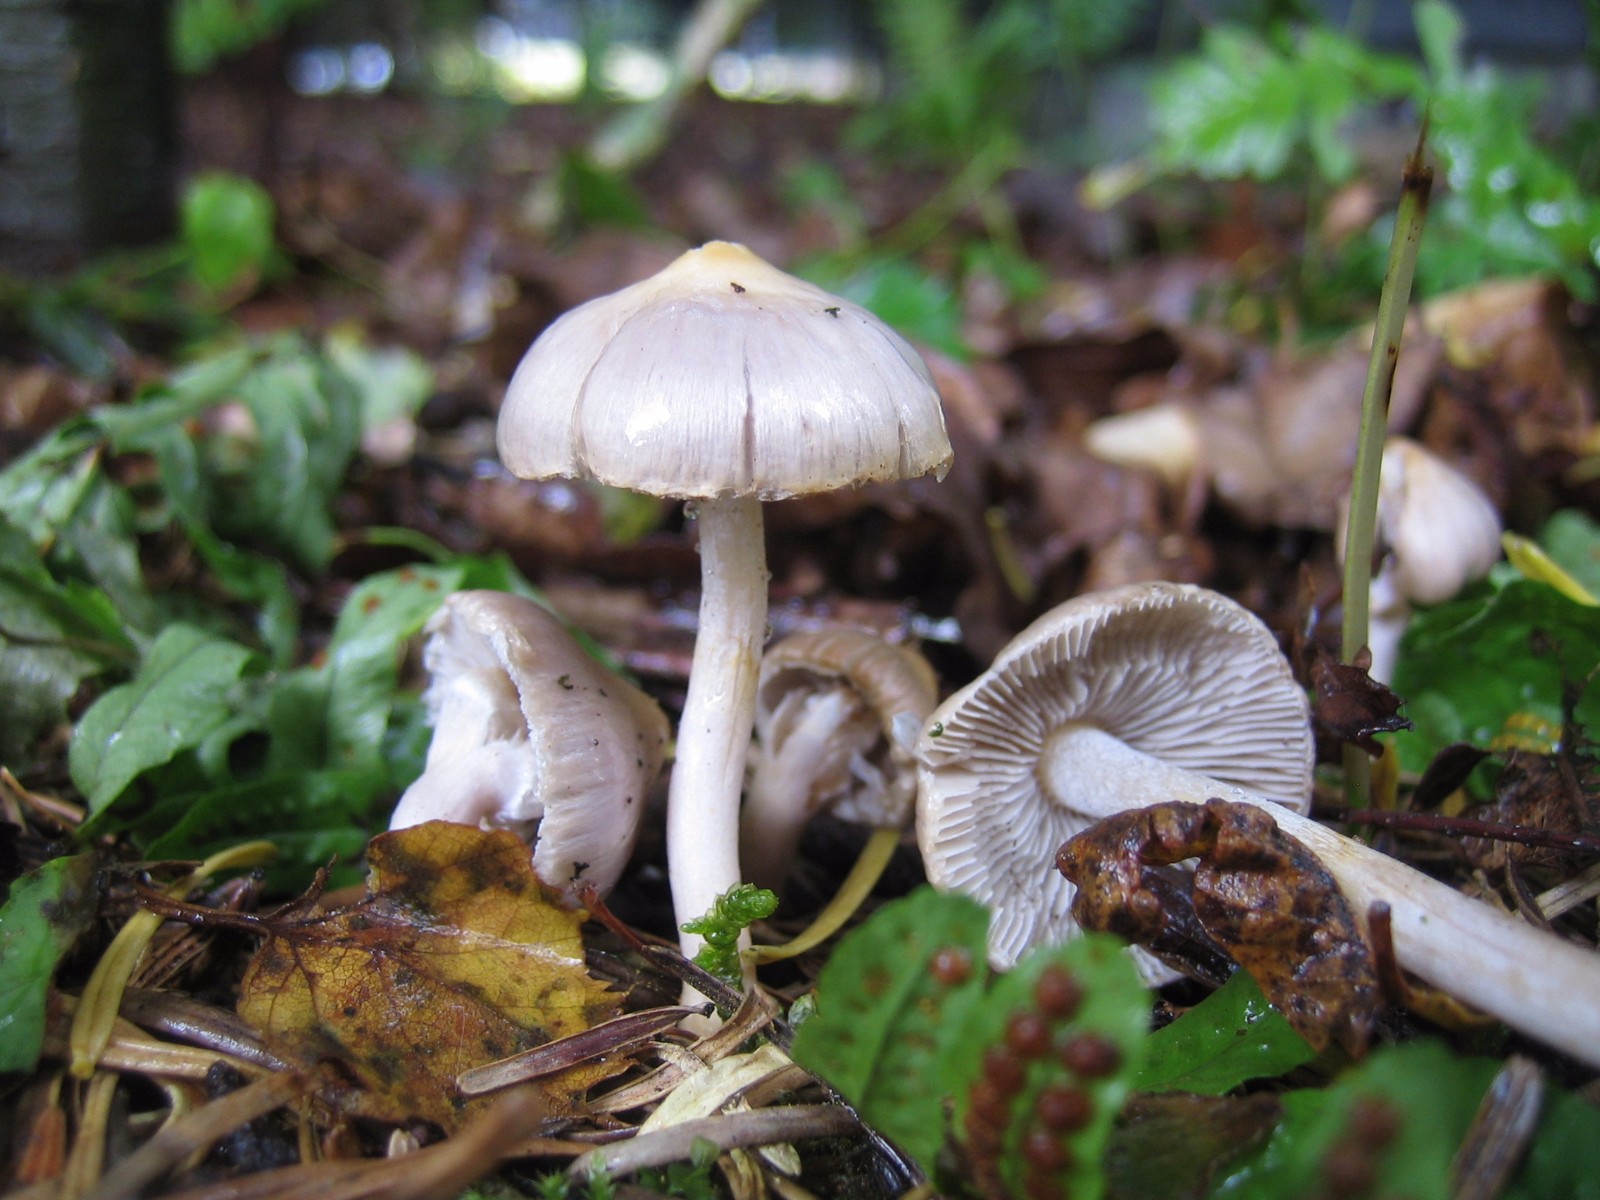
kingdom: Fungi
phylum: Basidiomycota
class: Agaricomycetes
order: Agaricales
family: Inocybaceae
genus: Inocybe
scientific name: Inocybe geophylla
